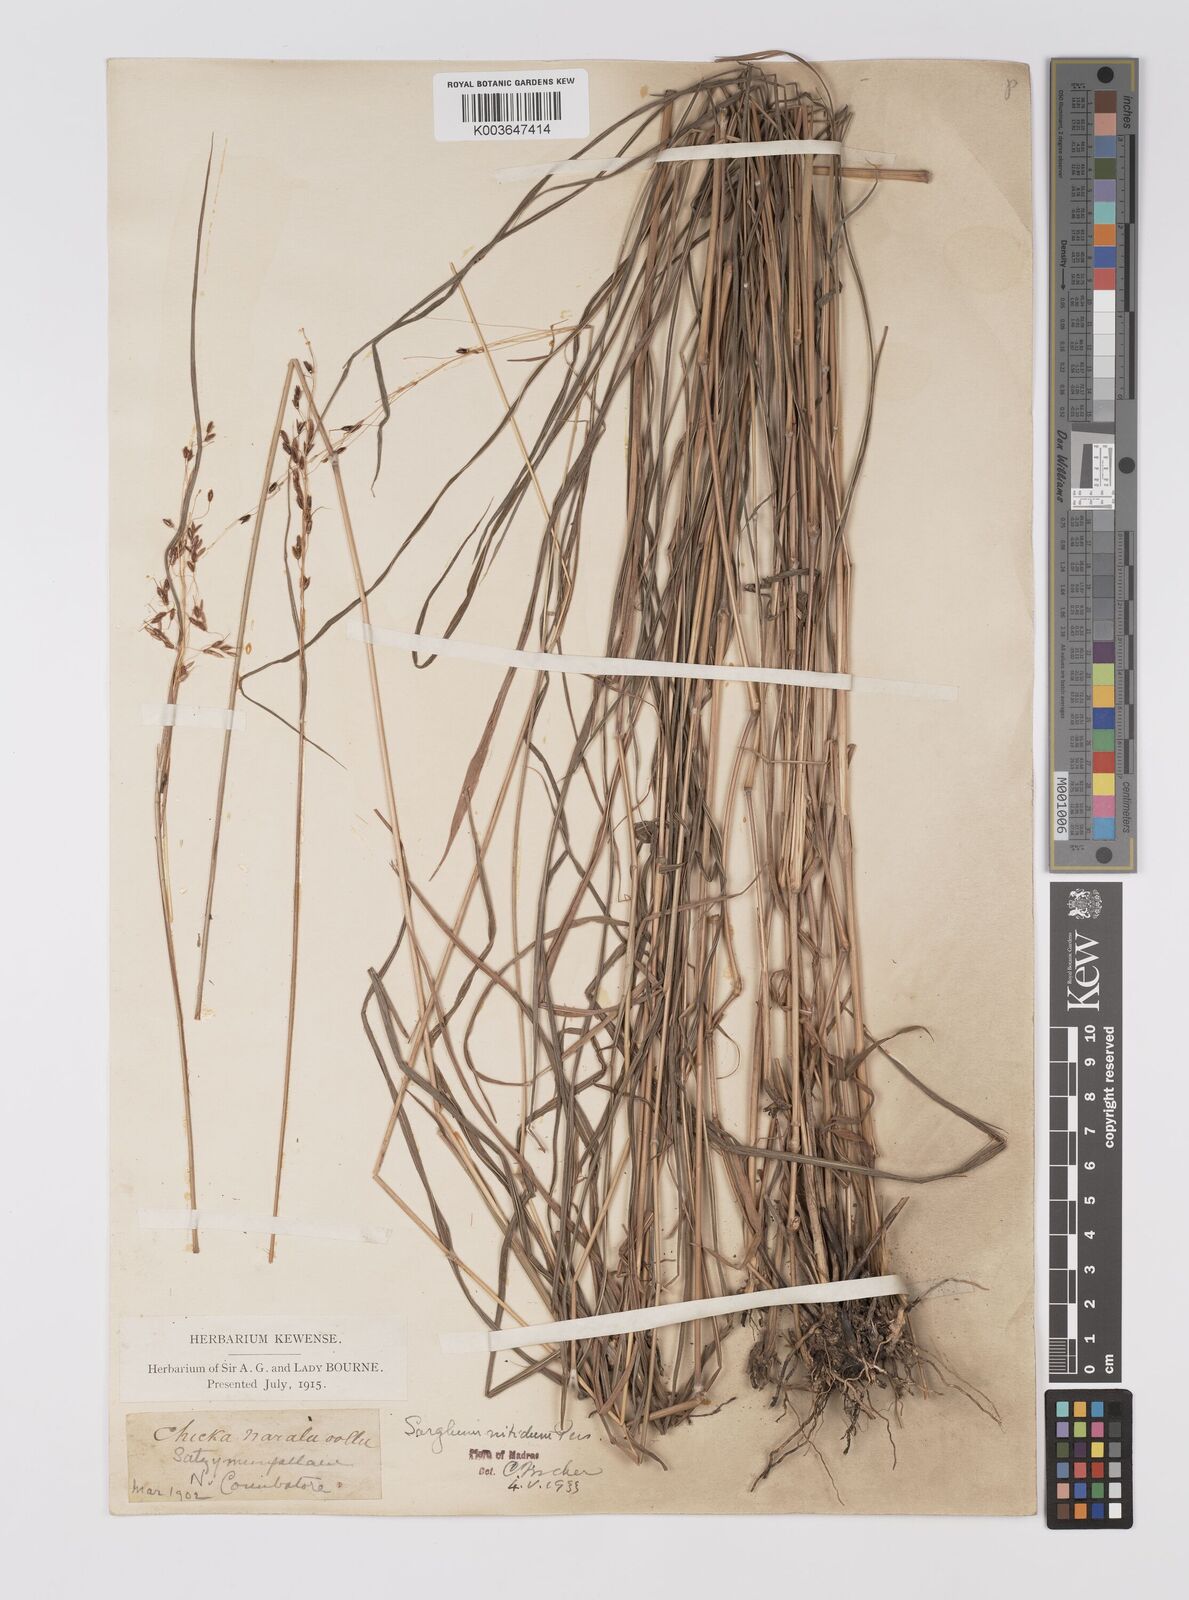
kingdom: Plantae
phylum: Tracheophyta
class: Liliopsida
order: Poales
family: Poaceae
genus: Sorghum
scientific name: Sorghum nitidum
